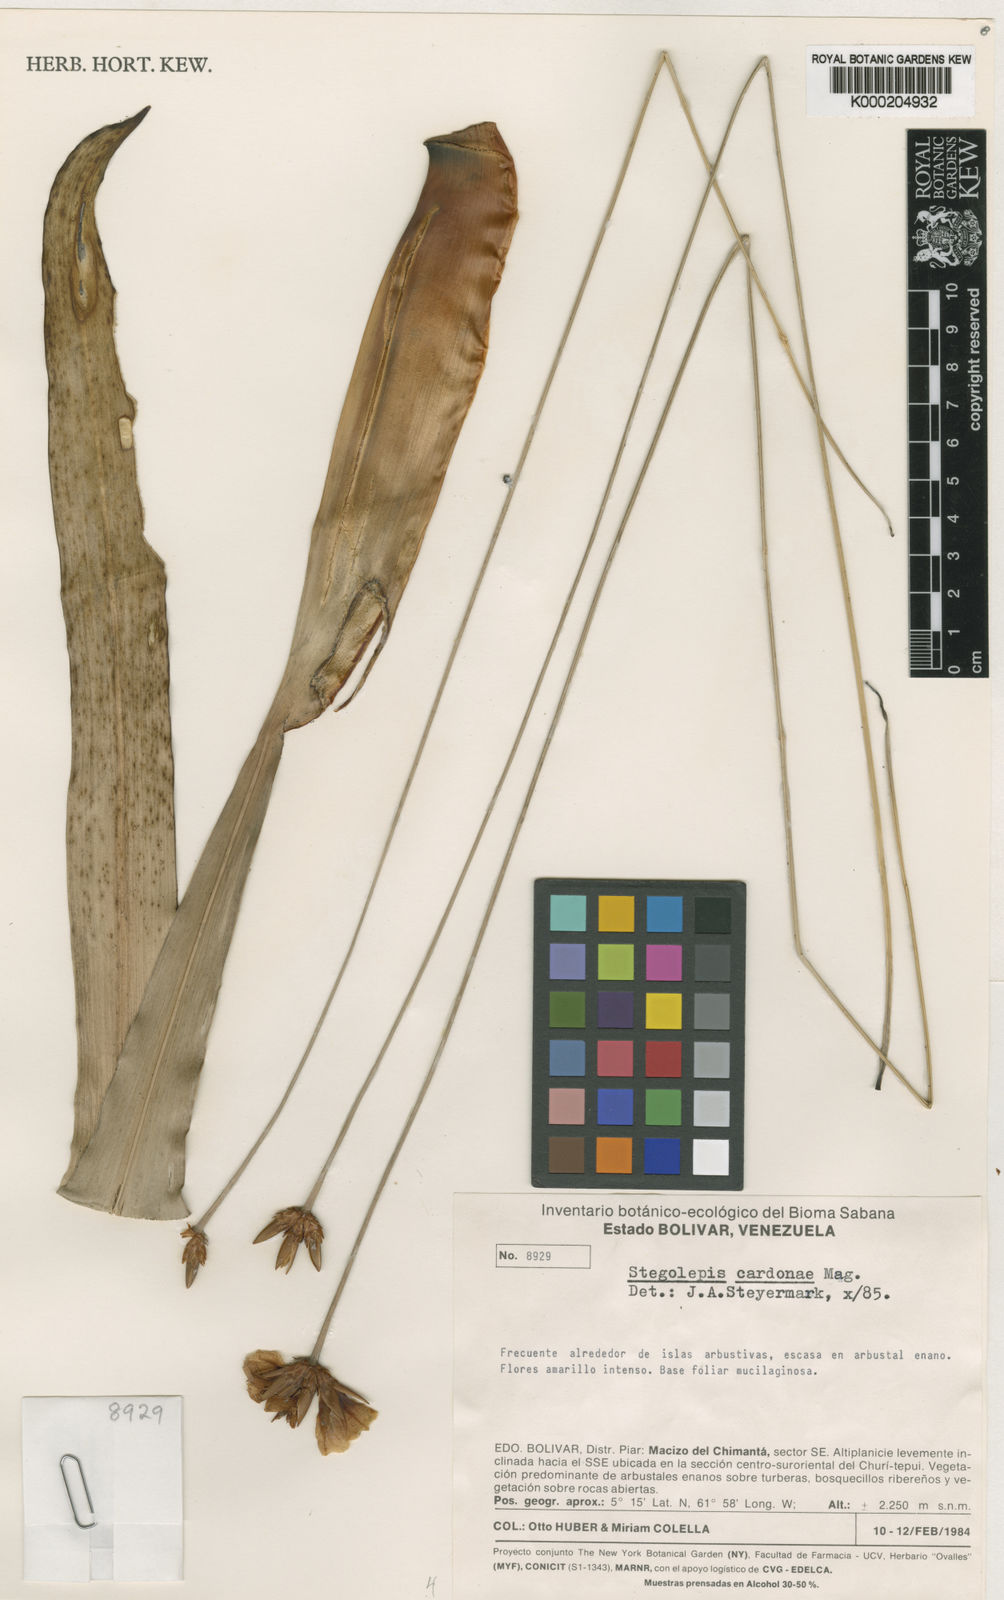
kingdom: Plantae
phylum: Tracheophyta
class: Liliopsida
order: Poales
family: Rapateaceae
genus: Stegolepis
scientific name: Stegolepis cardonae
